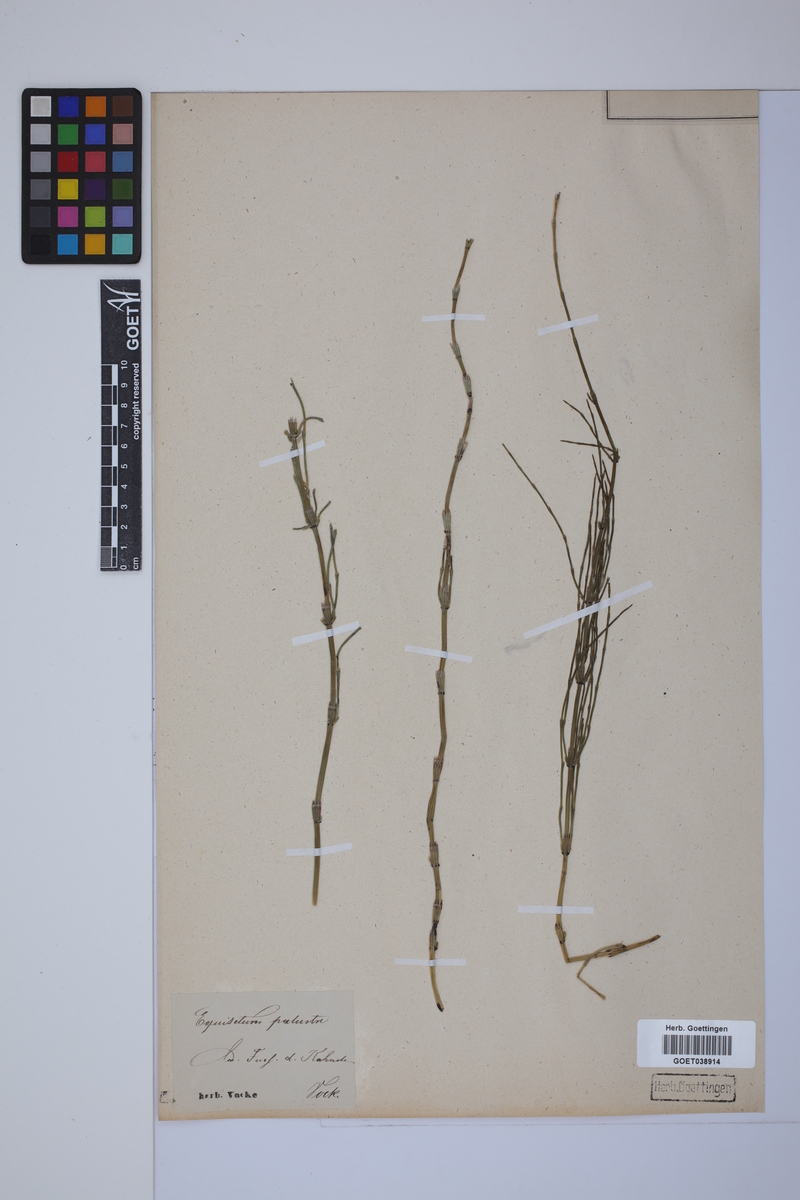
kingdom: Plantae
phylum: Tracheophyta
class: Polypodiopsida
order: Equisetales
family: Equisetaceae
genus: Equisetum
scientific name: Equisetum palustre
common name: Marsh horsetail
